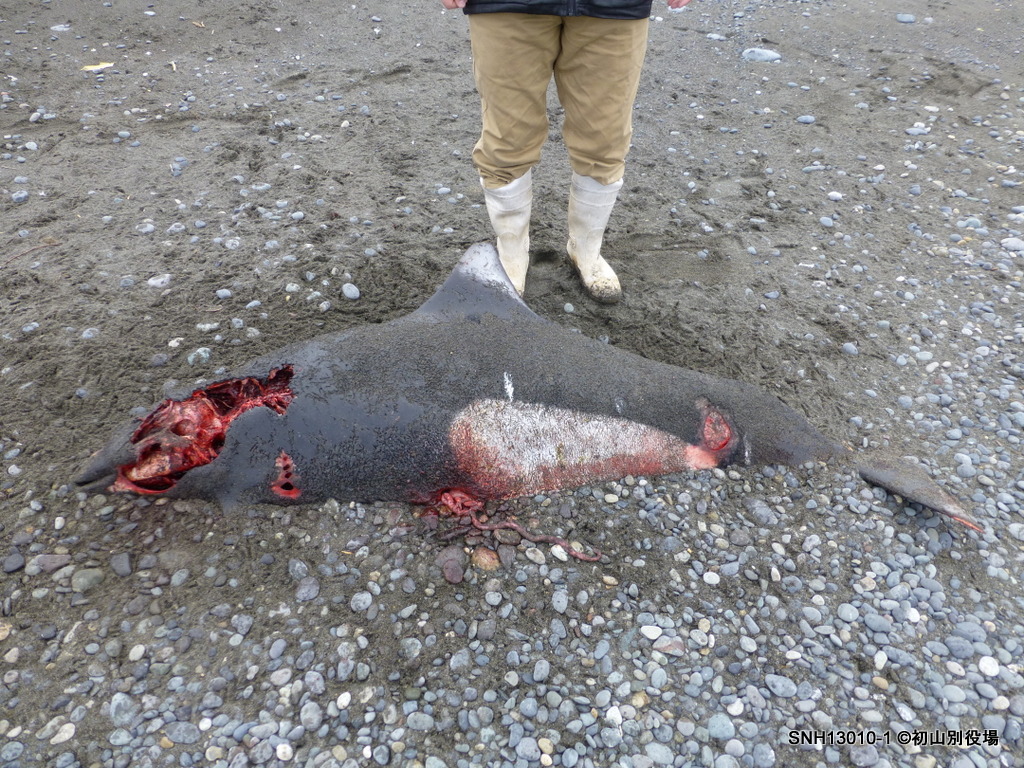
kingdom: Animalia
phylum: Chordata
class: Mammalia
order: Cetacea
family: Phocoenidae
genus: Phocoenoides
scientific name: Phocoenoides dalli
